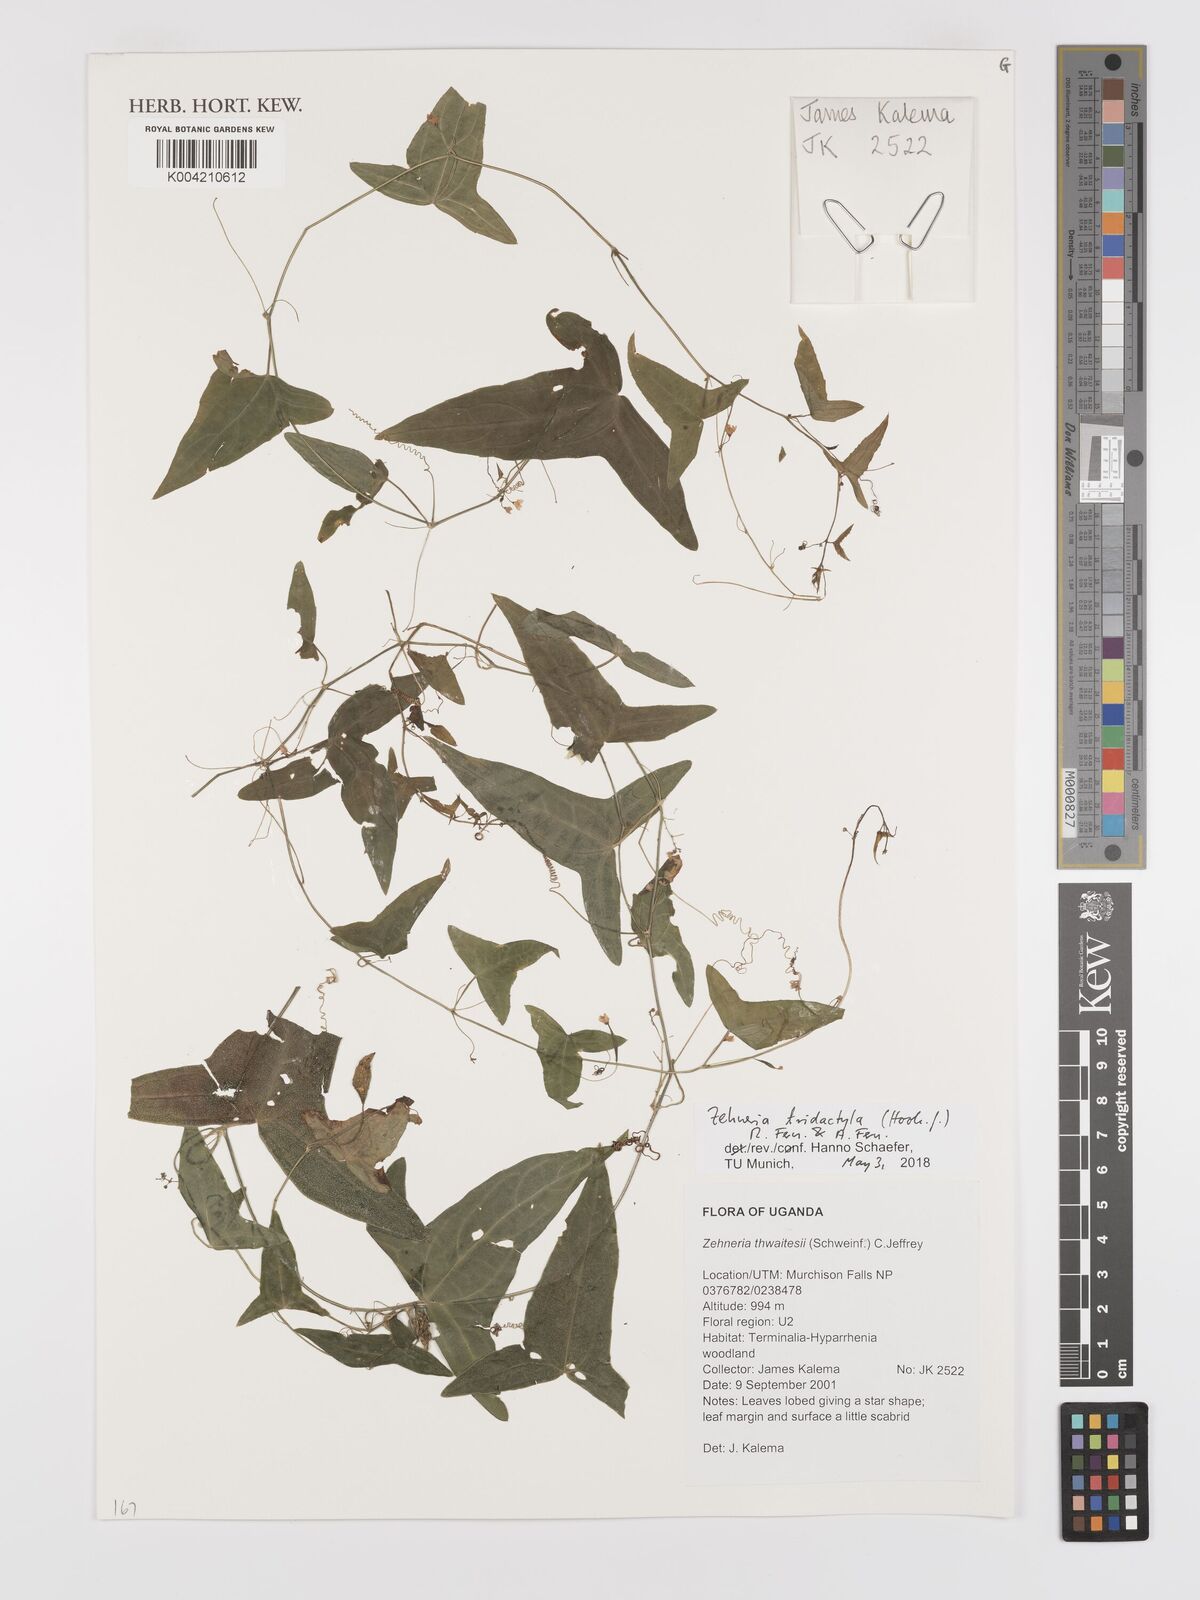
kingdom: Plantae
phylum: Tracheophyta
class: Magnoliopsida
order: Cucurbitales
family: Cucurbitaceae
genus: Zehneria
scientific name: Zehneria thwaitesii
